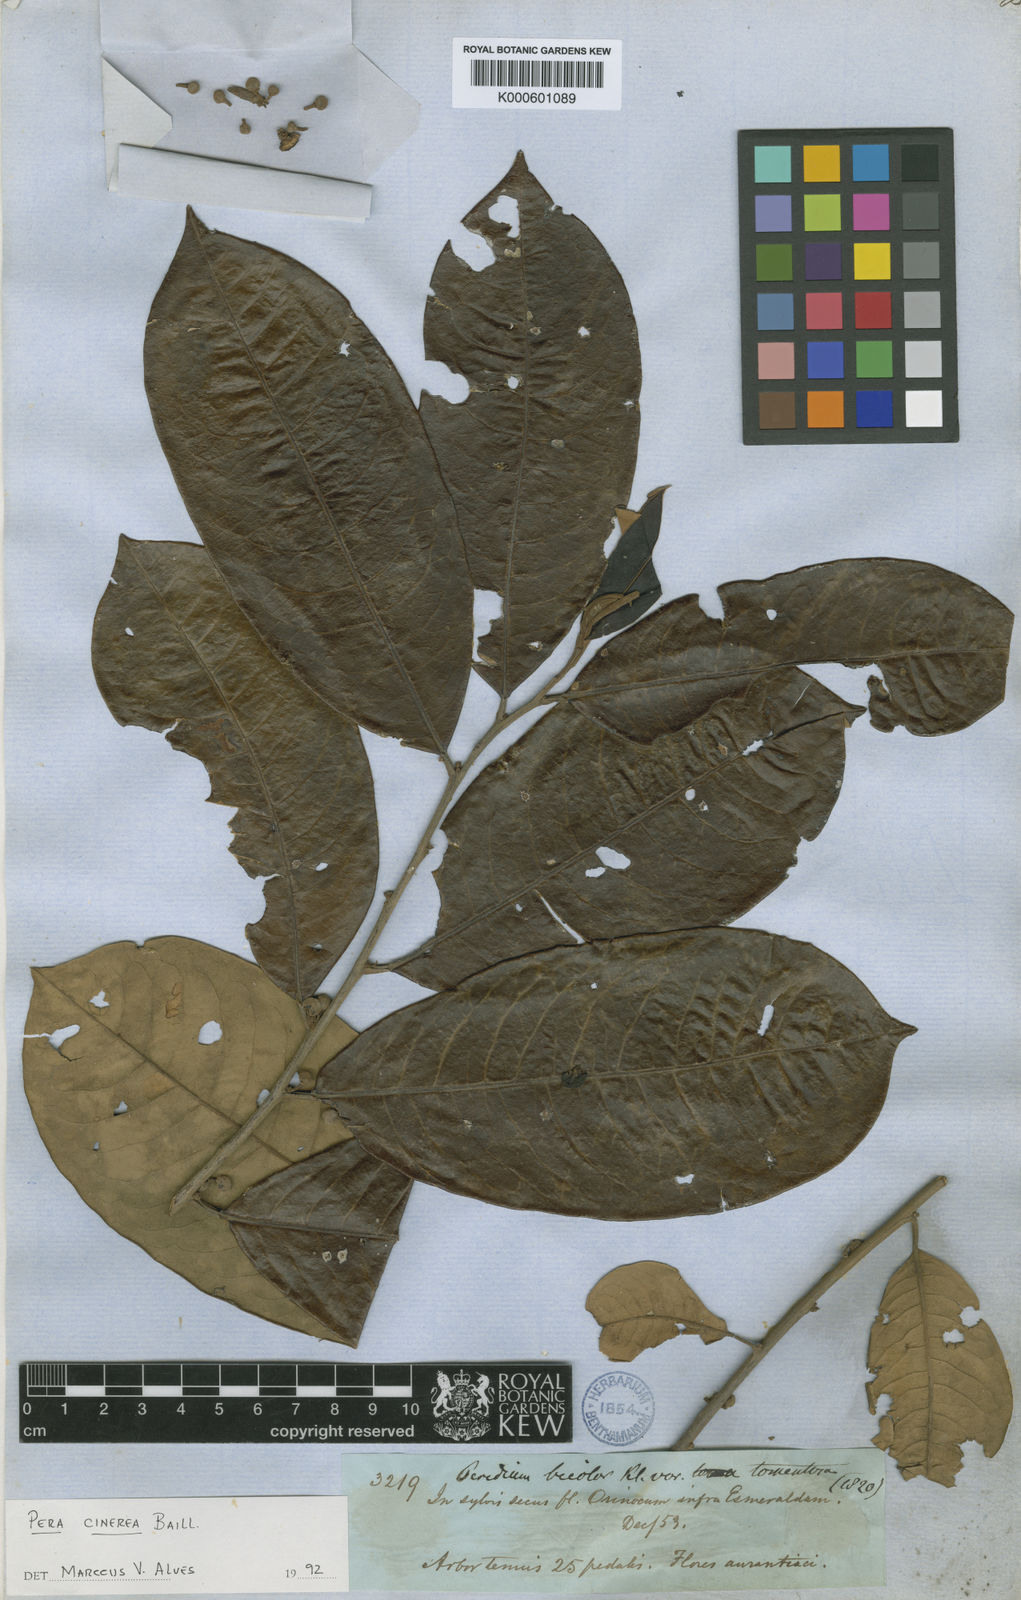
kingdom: Plantae
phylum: Tracheophyta
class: Magnoliopsida
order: Malpighiales
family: Peraceae
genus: Pera
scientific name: Pera tomentosa
